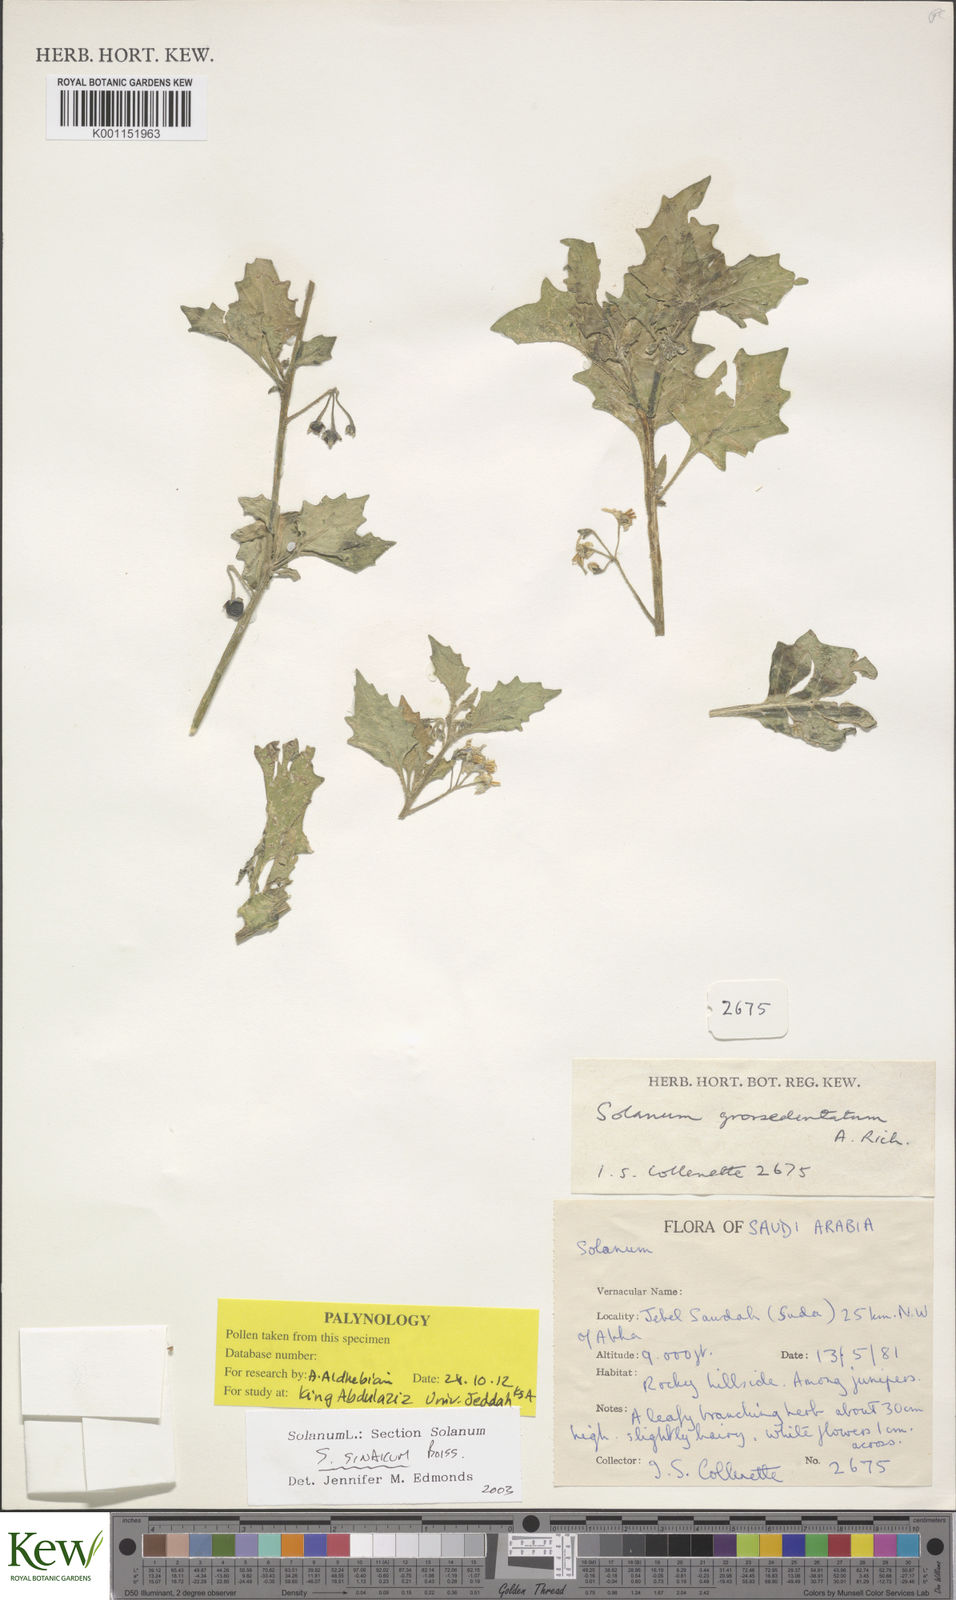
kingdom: Plantae
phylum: Tracheophyta
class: Magnoliopsida
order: Solanales
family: Solanaceae
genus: Solanum
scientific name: Solanum villosum
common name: Red nightshade
